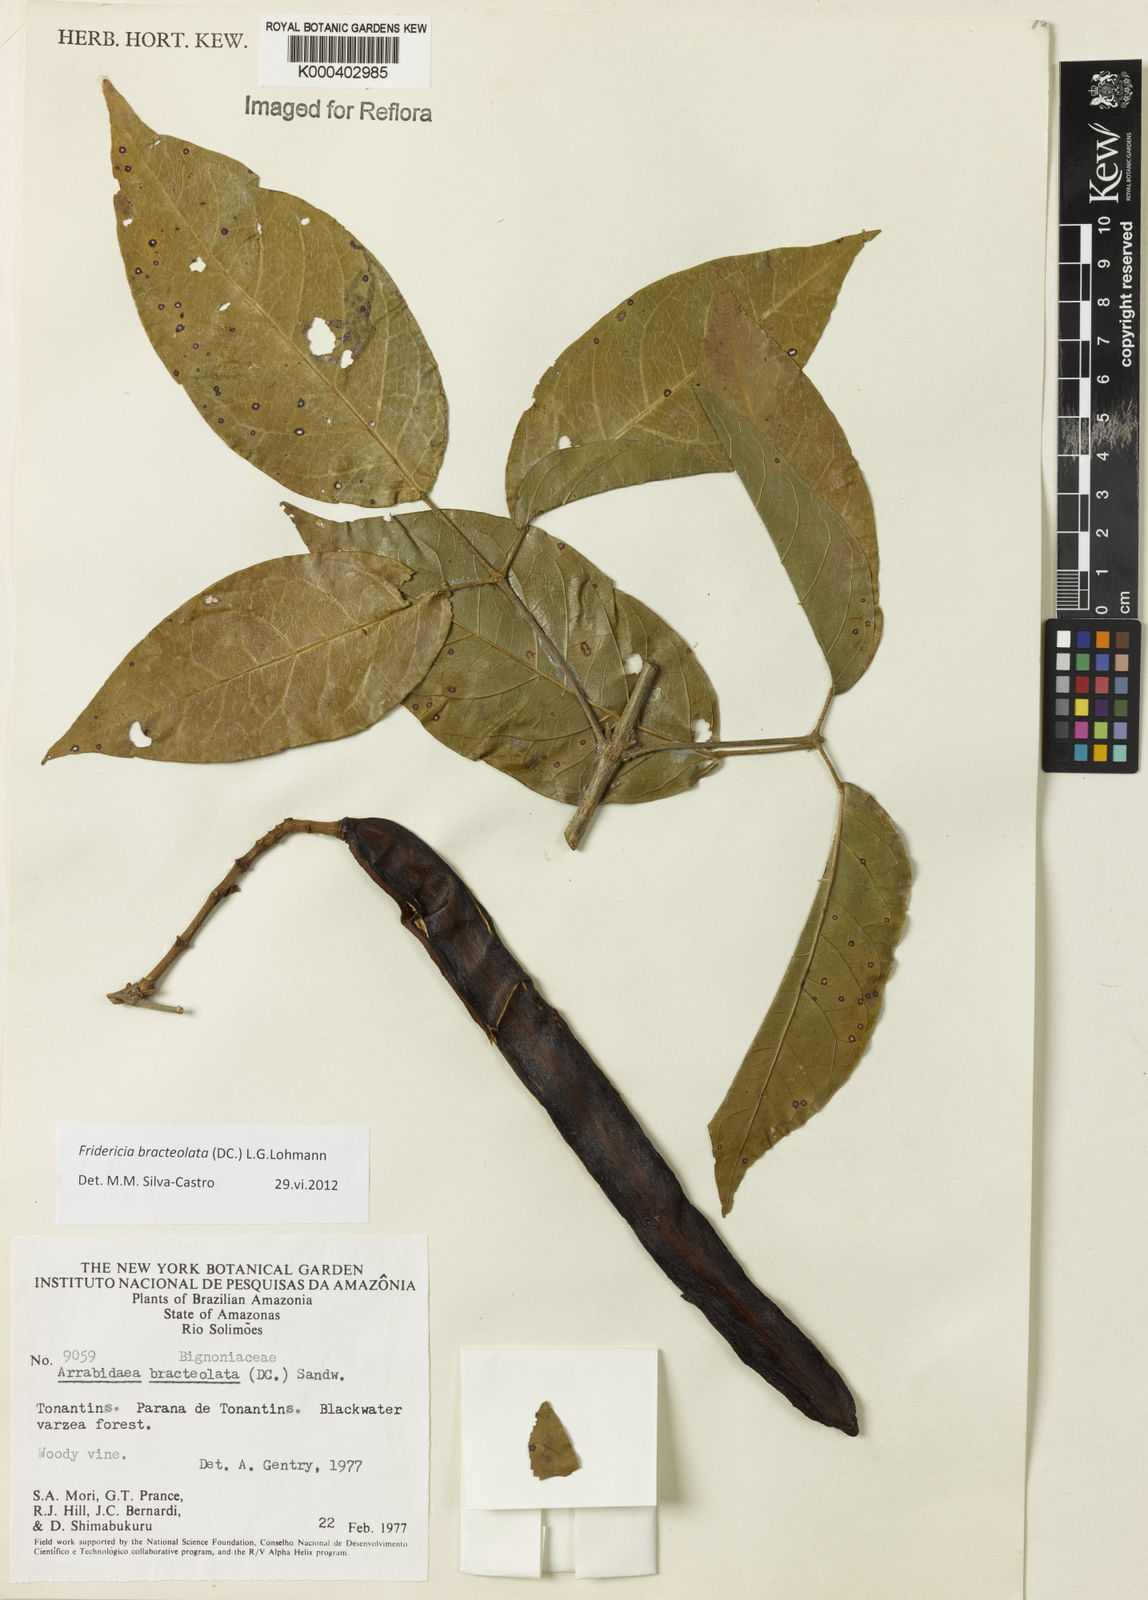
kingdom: Plantae
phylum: Tracheophyta
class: Magnoliopsida
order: Lamiales
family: Bignoniaceae
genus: Cuspidaria
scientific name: Cuspidaria bracteolata
